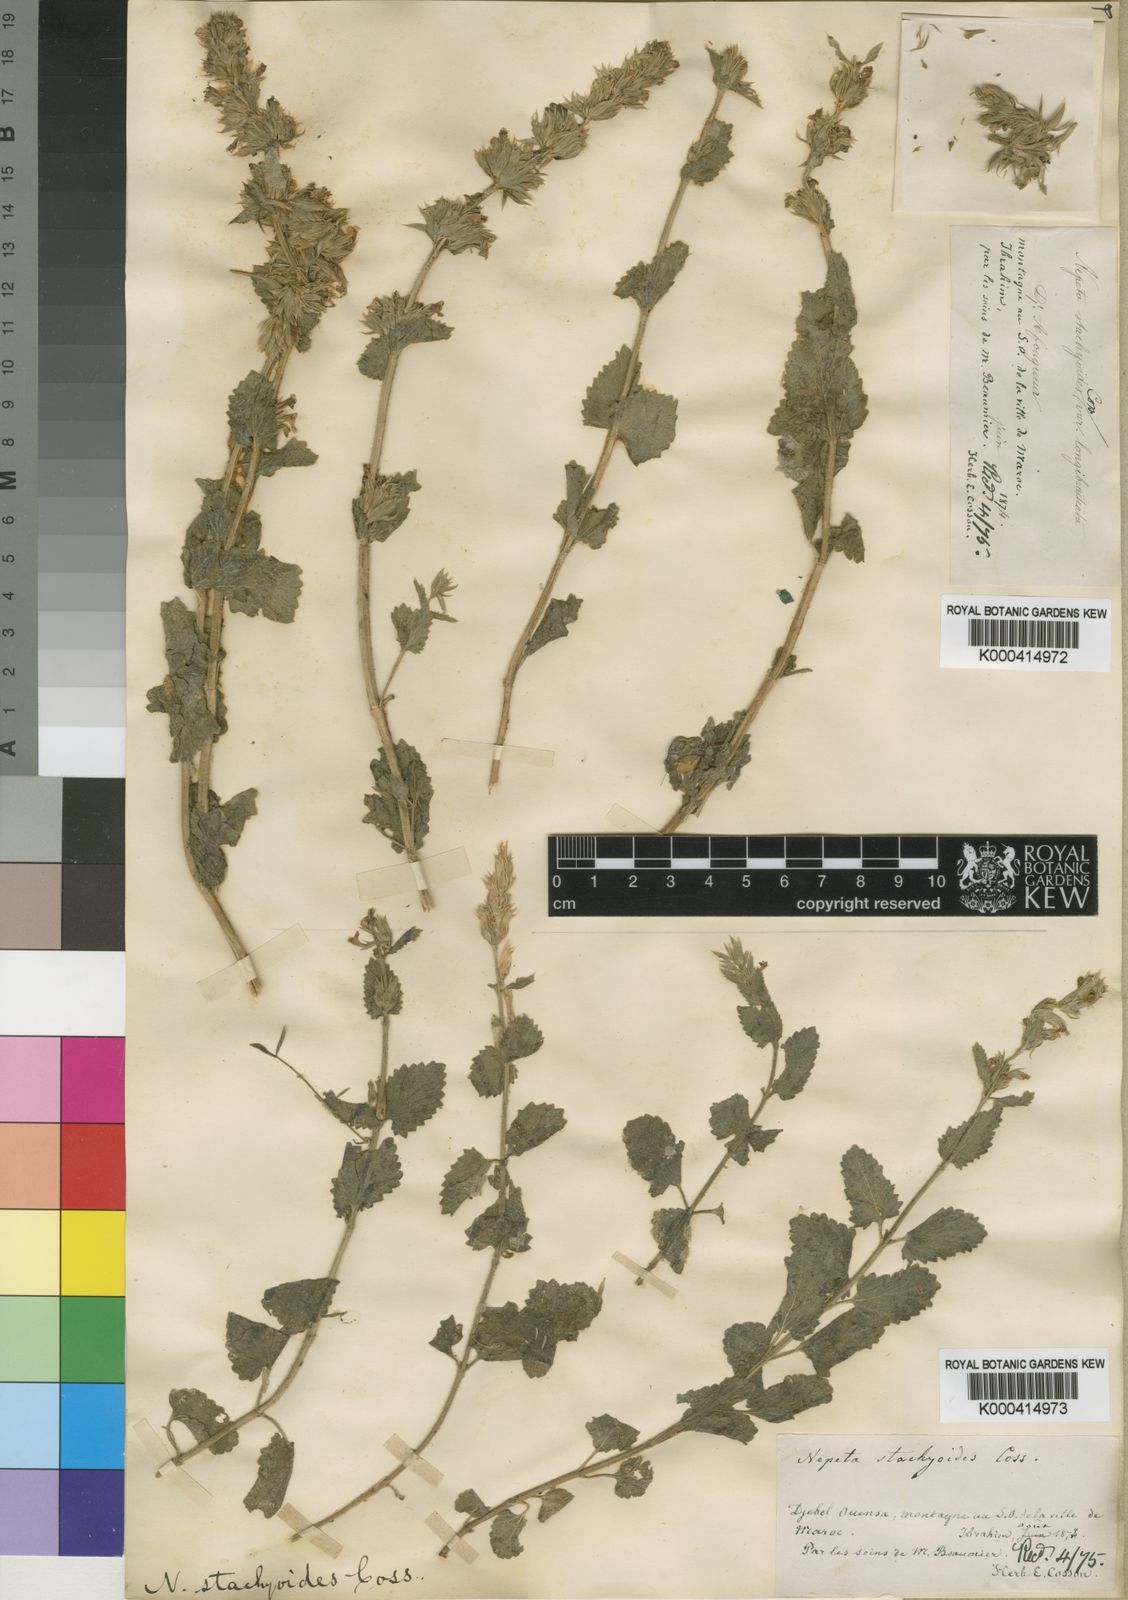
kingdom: Plantae
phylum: Tracheophyta
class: Magnoliopsida
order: Lamiales
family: Lamiaceae
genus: Nepeta
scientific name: Nepeta
